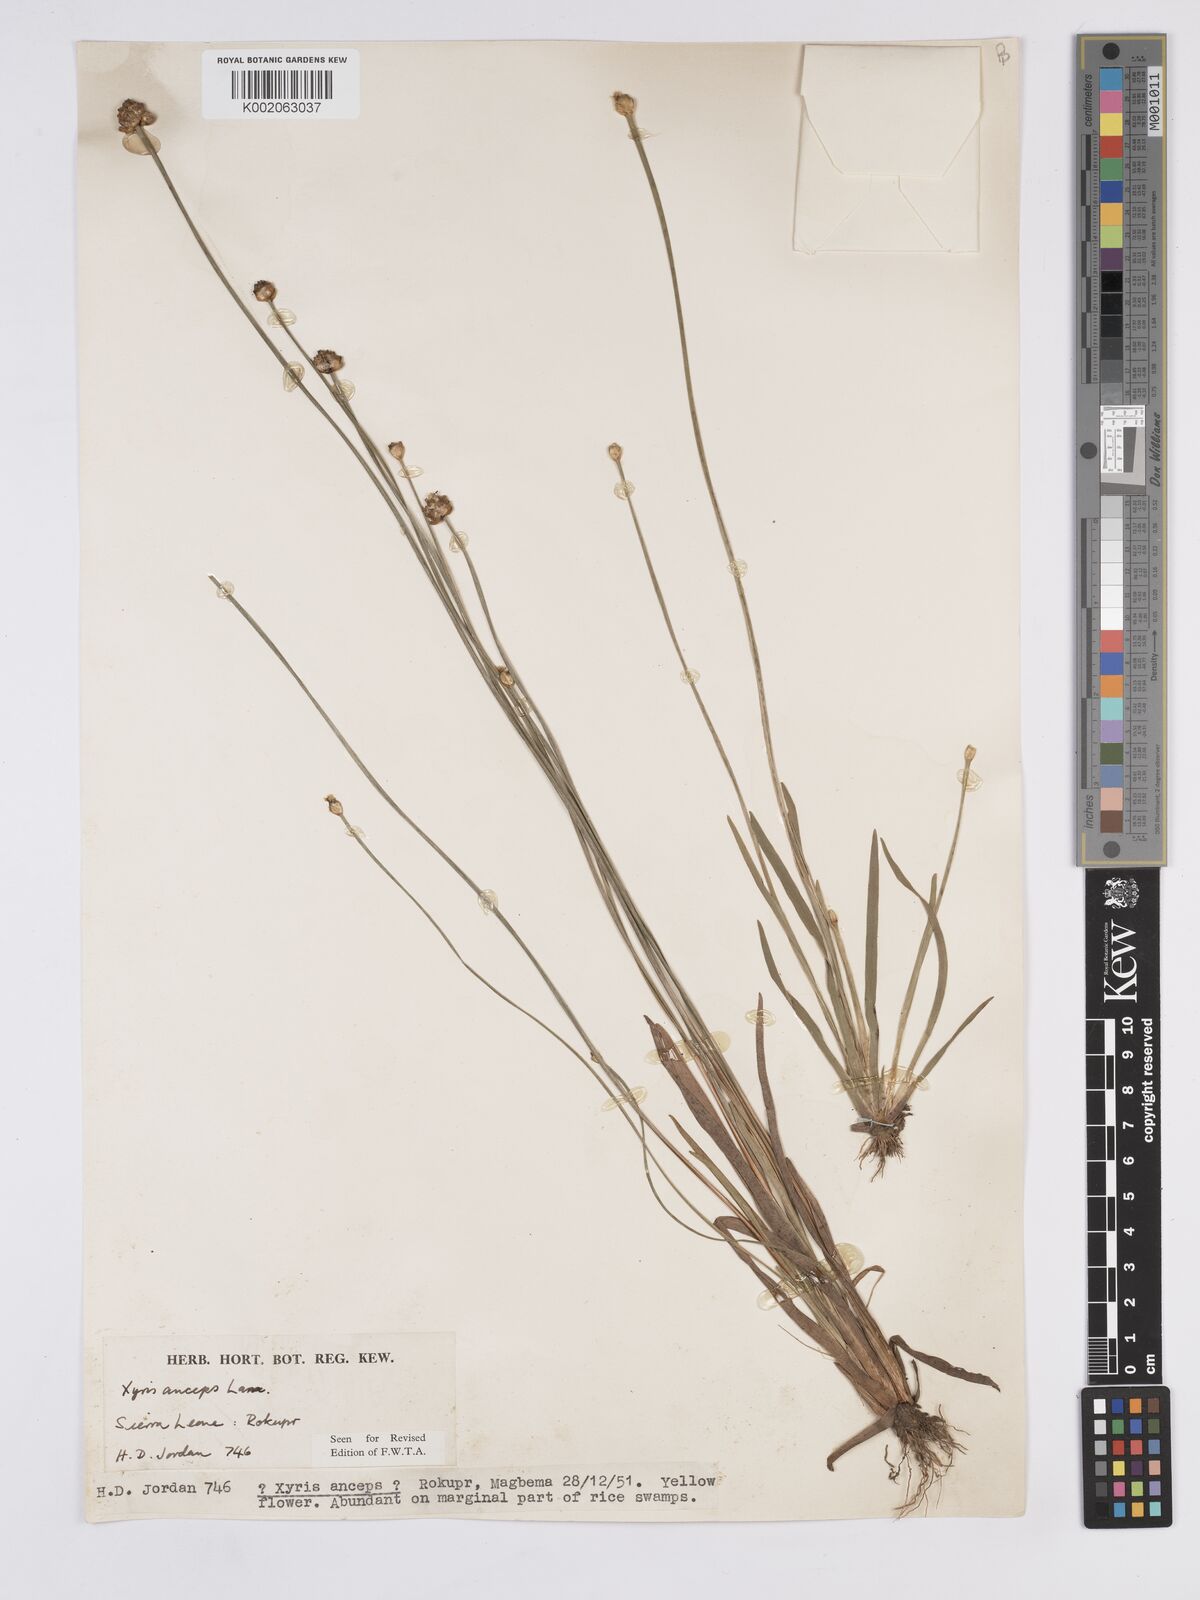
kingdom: Plantae
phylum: Tracheophyta
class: Liliopsida
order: Poales
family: Xyridaceae
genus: Xyris
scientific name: Xyris anceps
